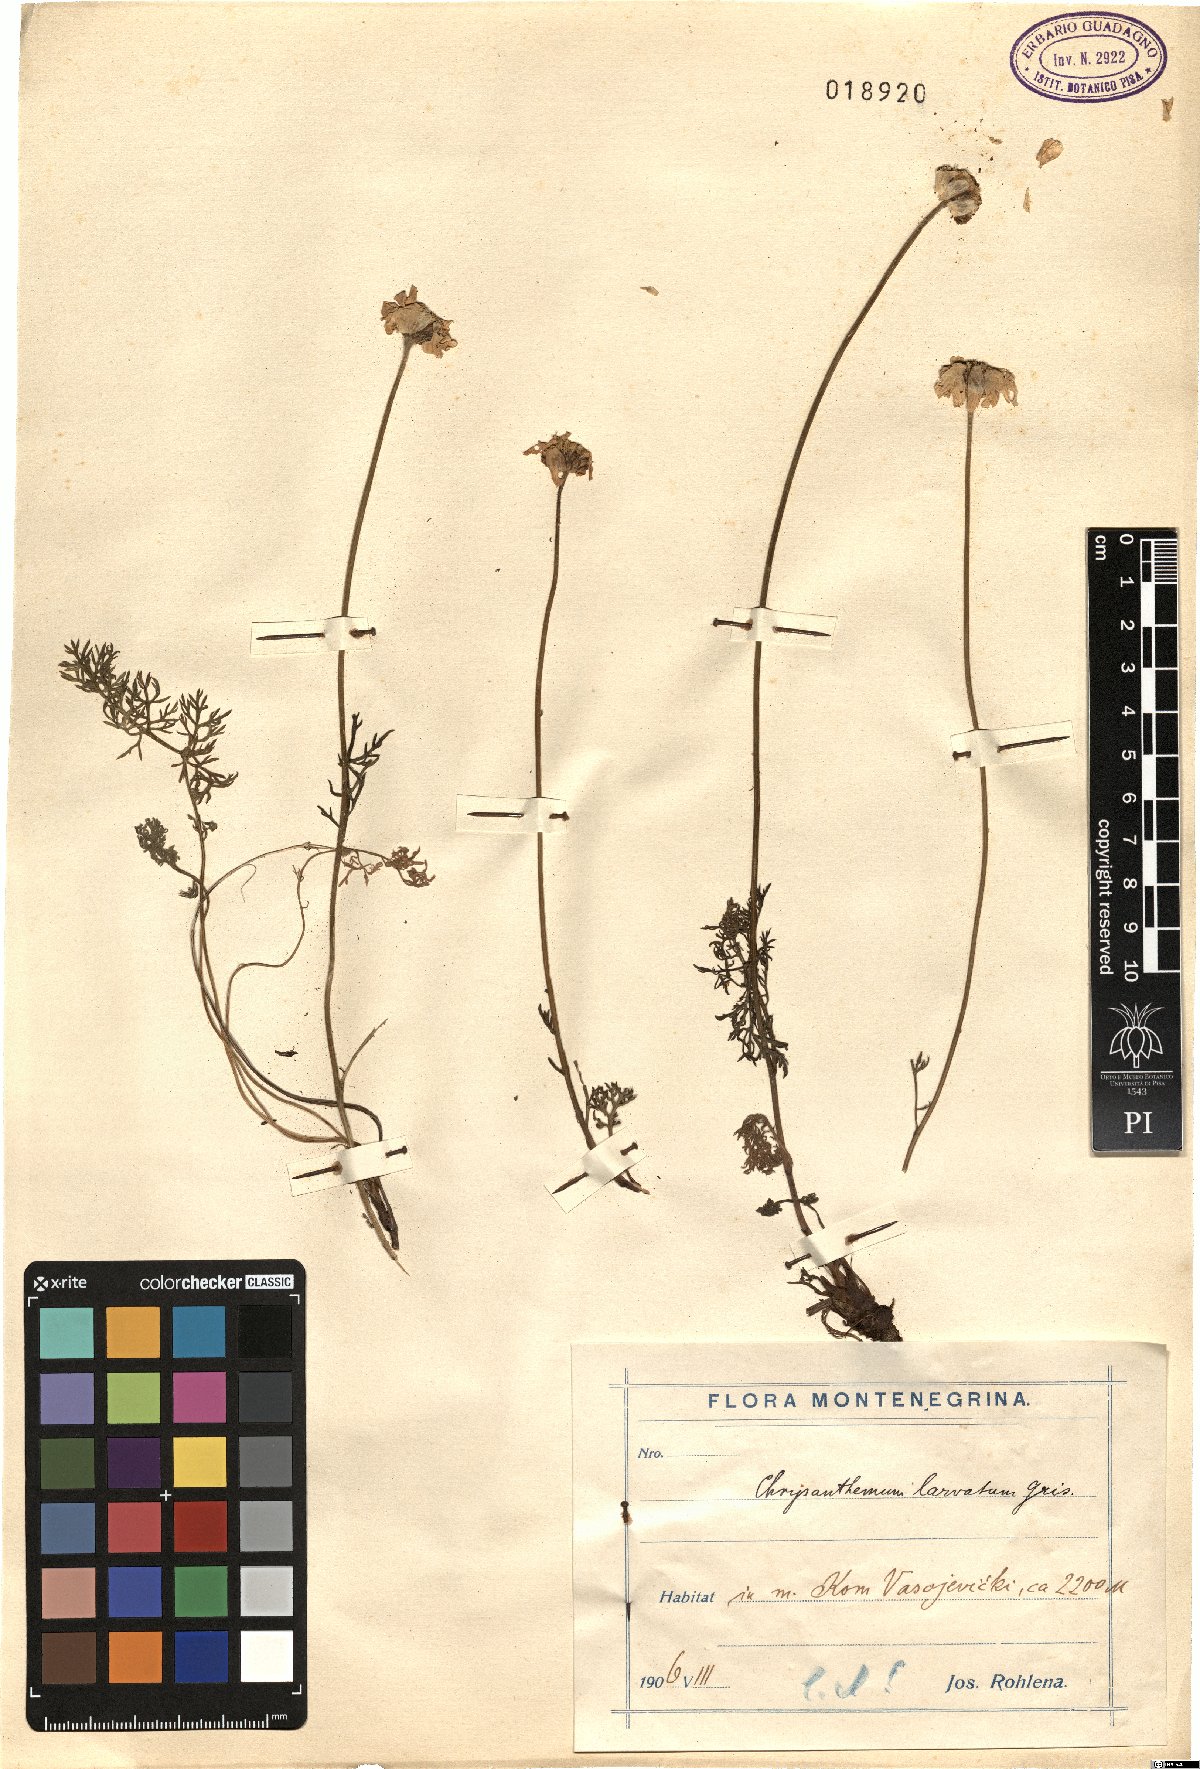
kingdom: Plantae
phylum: Tracheophyta
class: Magnoliopsida
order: Asterales
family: Asteraceae
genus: Tanacetum
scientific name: Tanacetum larvatum
